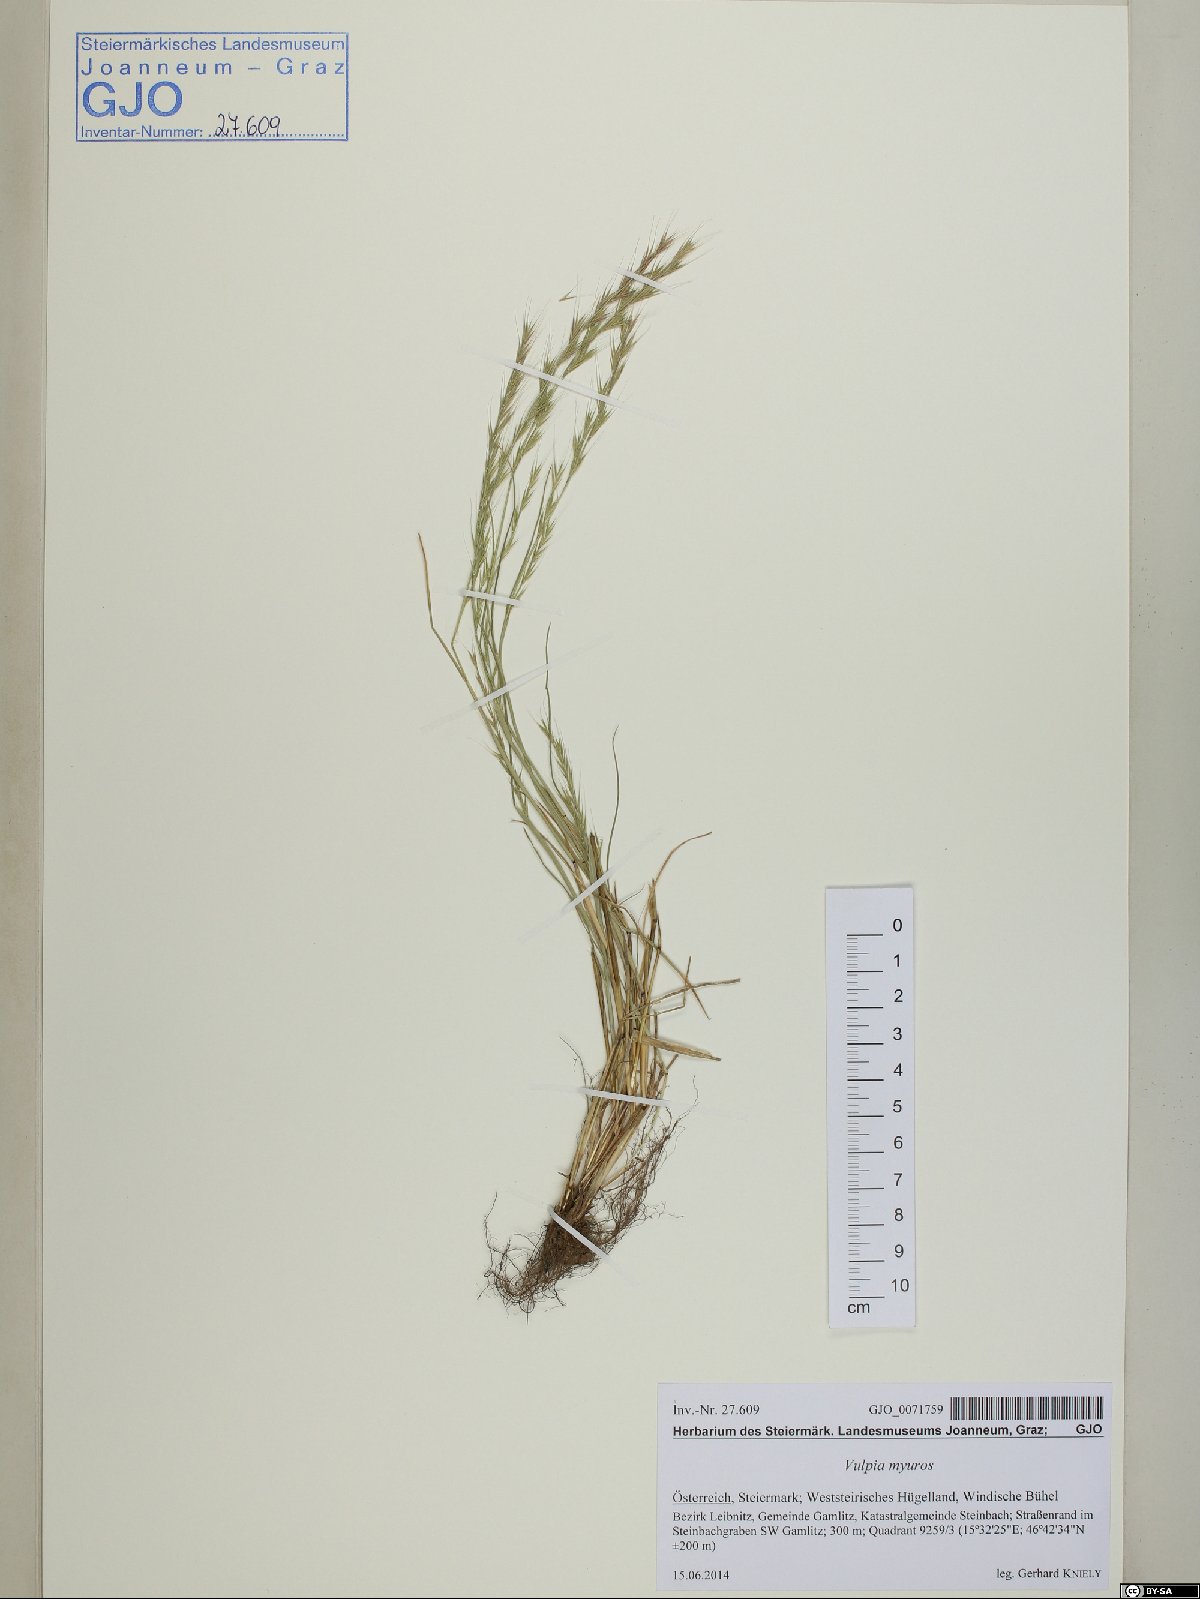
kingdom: Plantae
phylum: Tracheophyta
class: Liliopsida
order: Poales
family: Poaceae
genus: Festuca
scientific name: Festuca myuros
